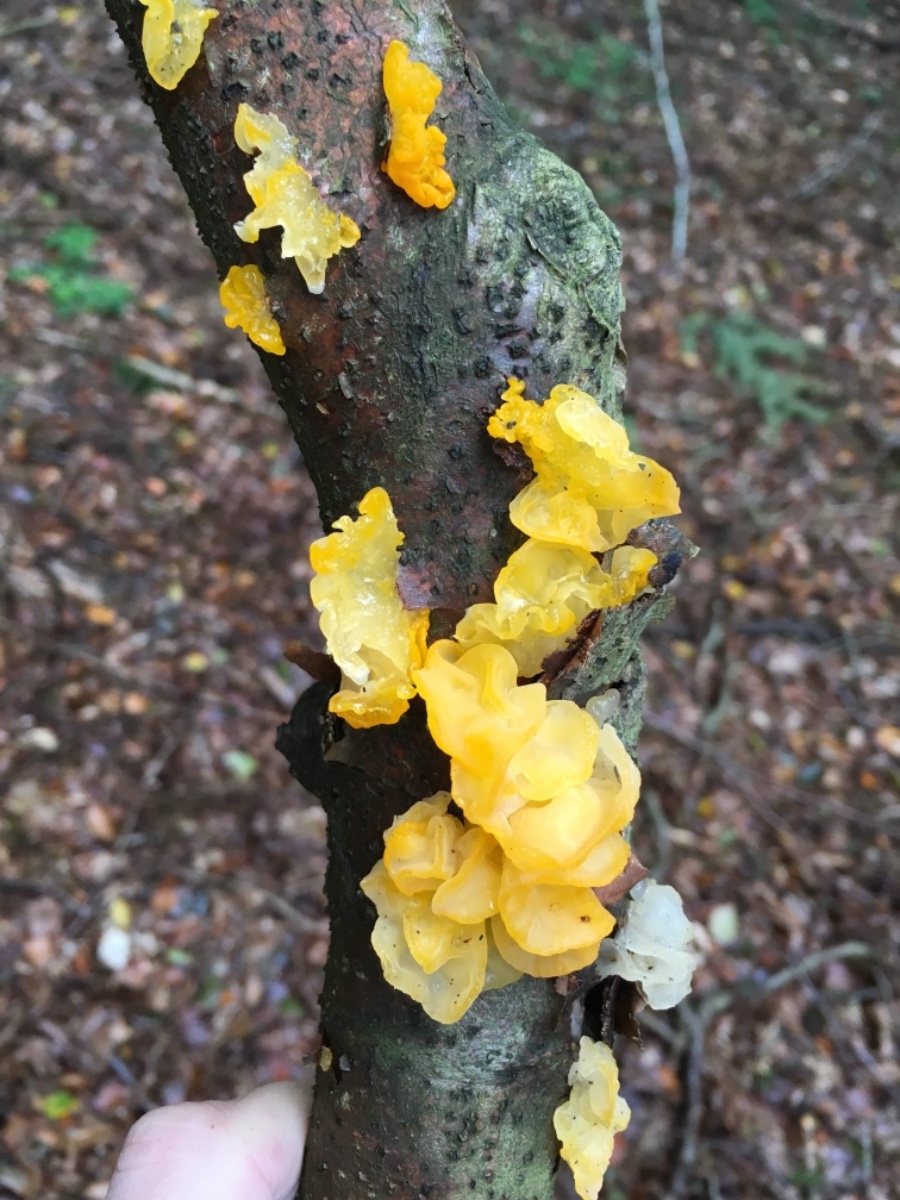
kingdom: Fungi
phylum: Basidiomycota
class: Tremellomycetes
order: Tremellales
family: Tremellaceae
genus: Tremella
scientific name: Tremella mesenterica
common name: gul bævresvamp
